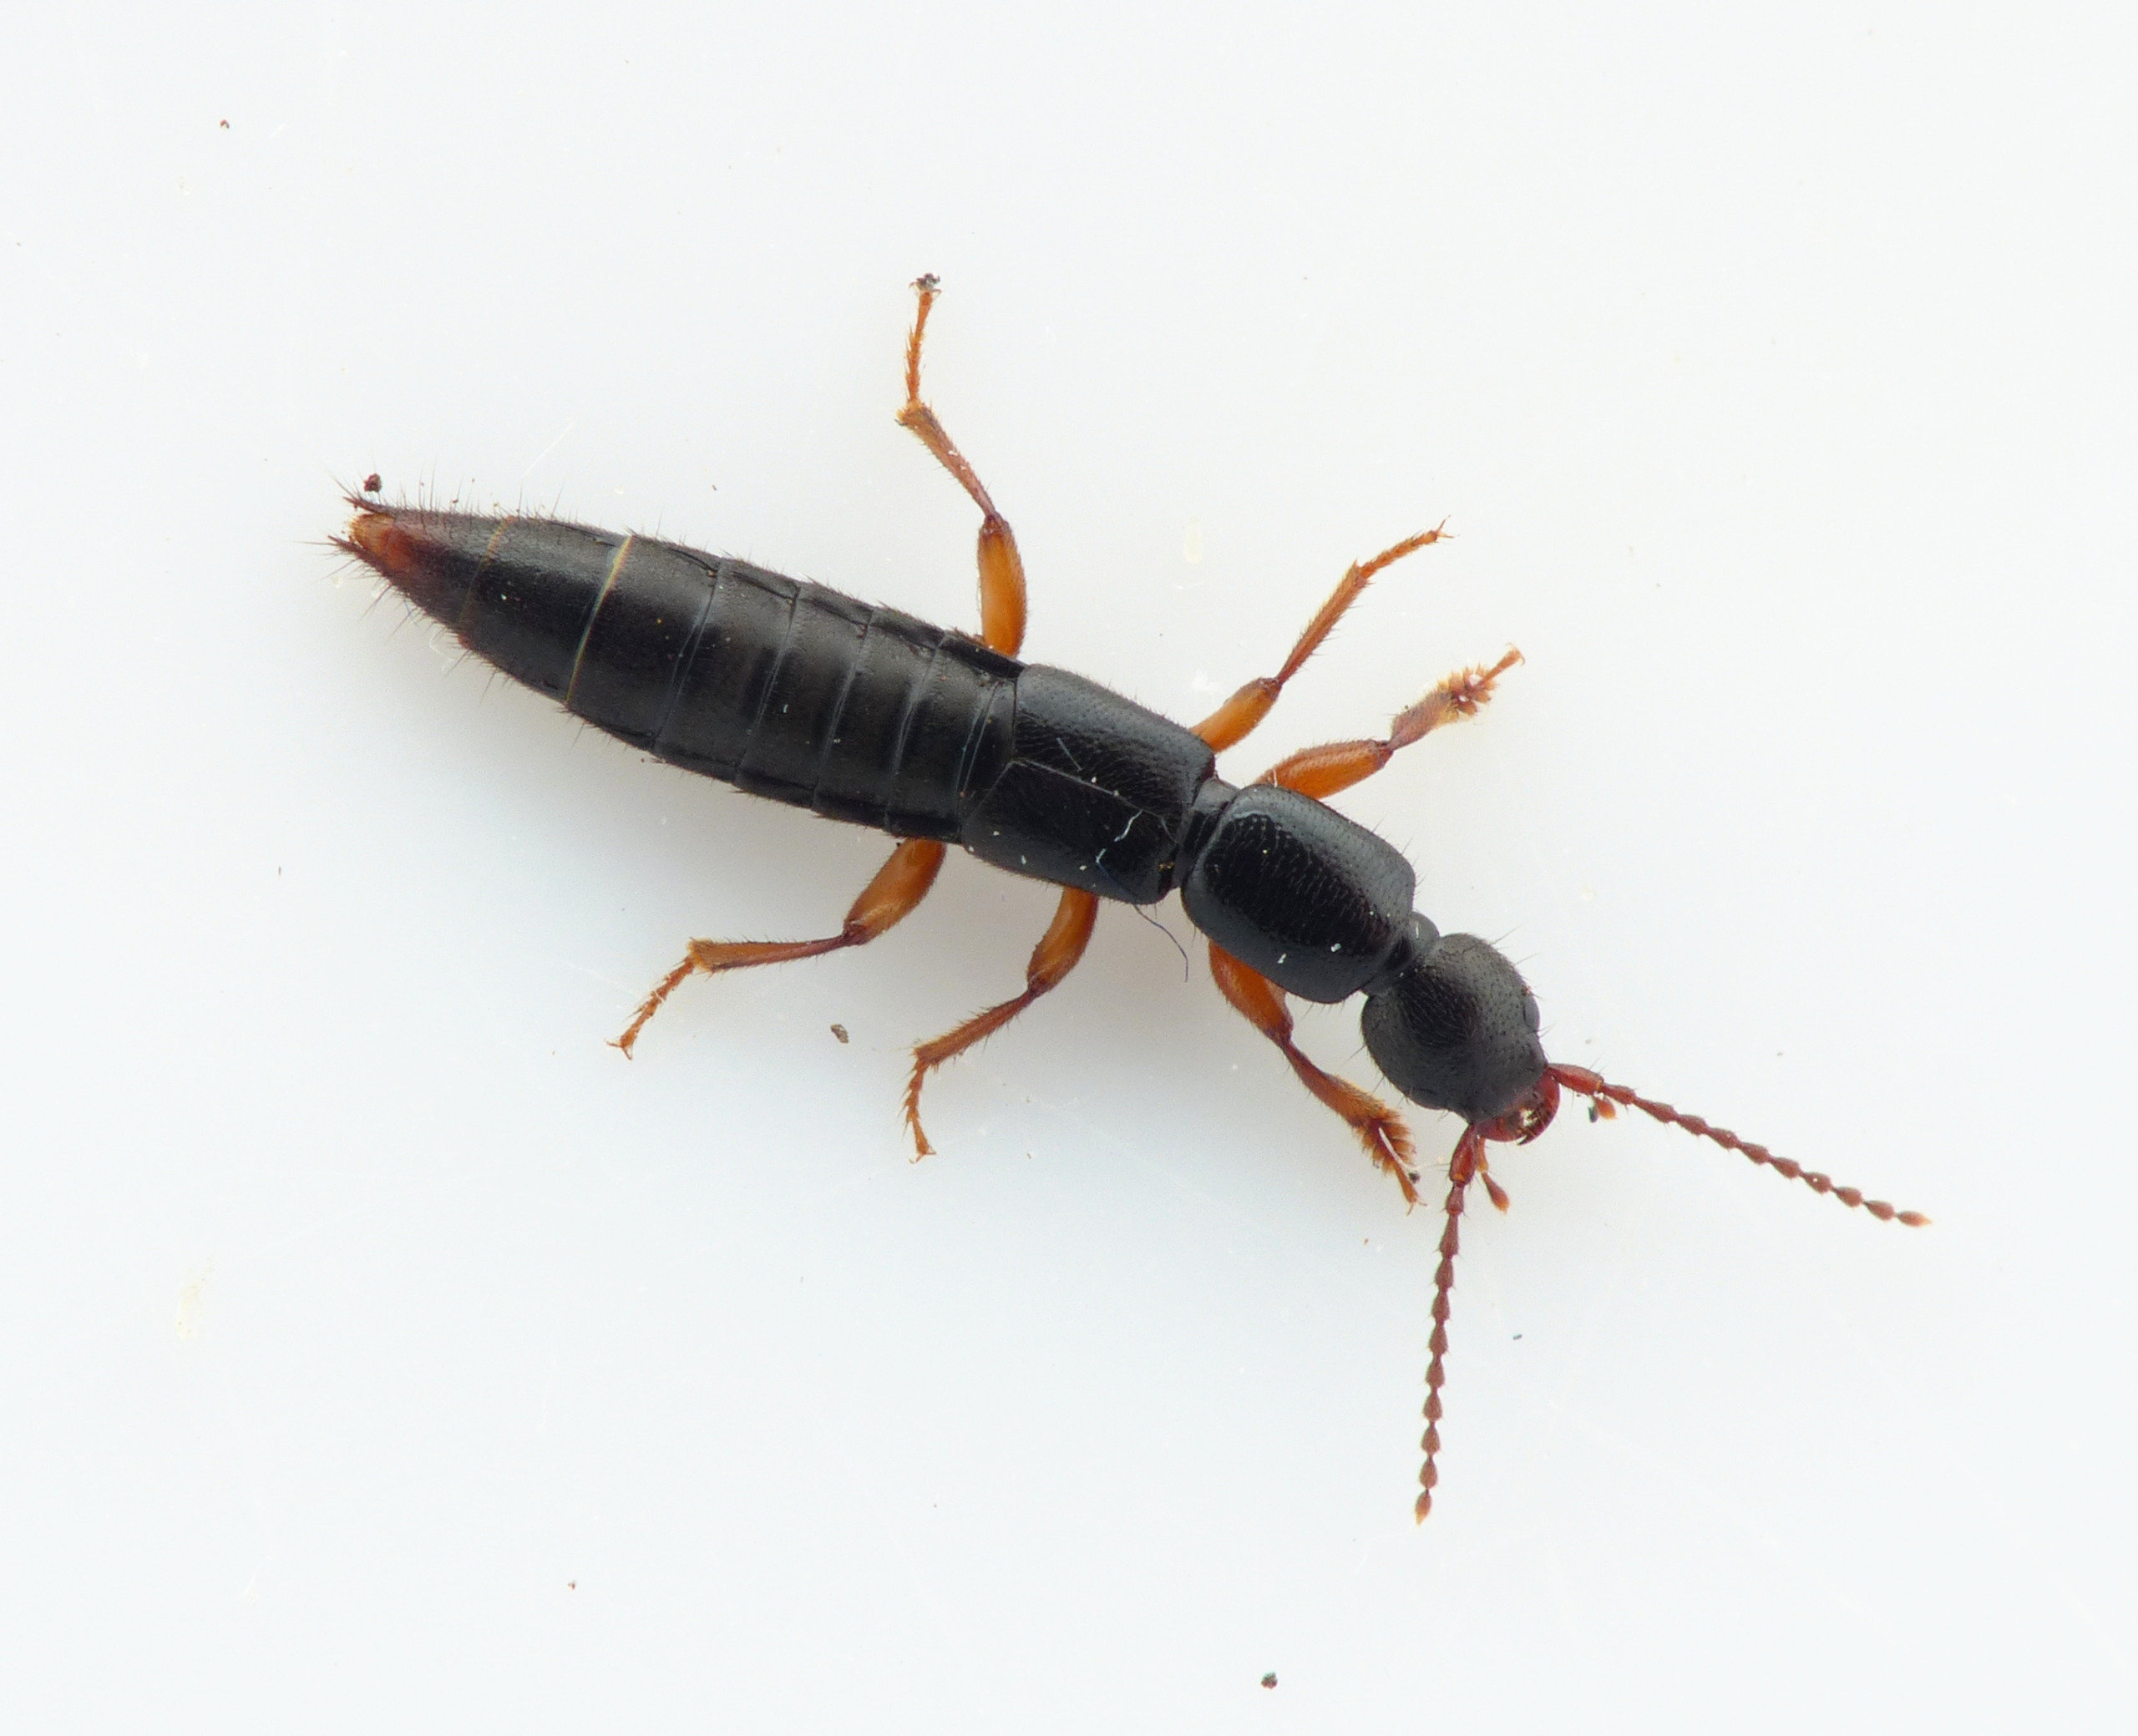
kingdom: Animalia
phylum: Arthropoda
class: Insecta
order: Coleoptera
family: Staphylinidae
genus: Lathrobium
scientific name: Lathrobium brunnipes
